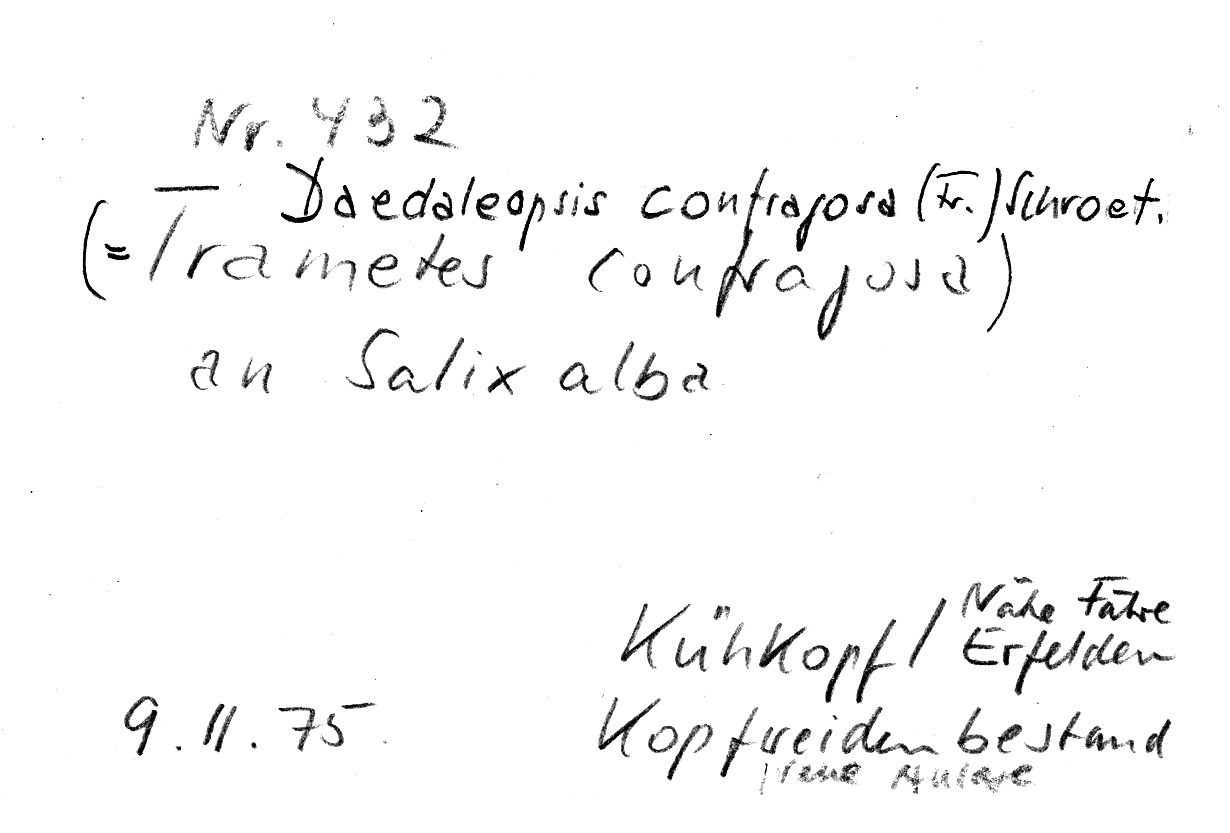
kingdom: Plantae
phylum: Tracheophyta
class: Magnoliopsida
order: Malpighiales
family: Salicaceae
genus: Salix
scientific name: Salix alba
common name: White willow
